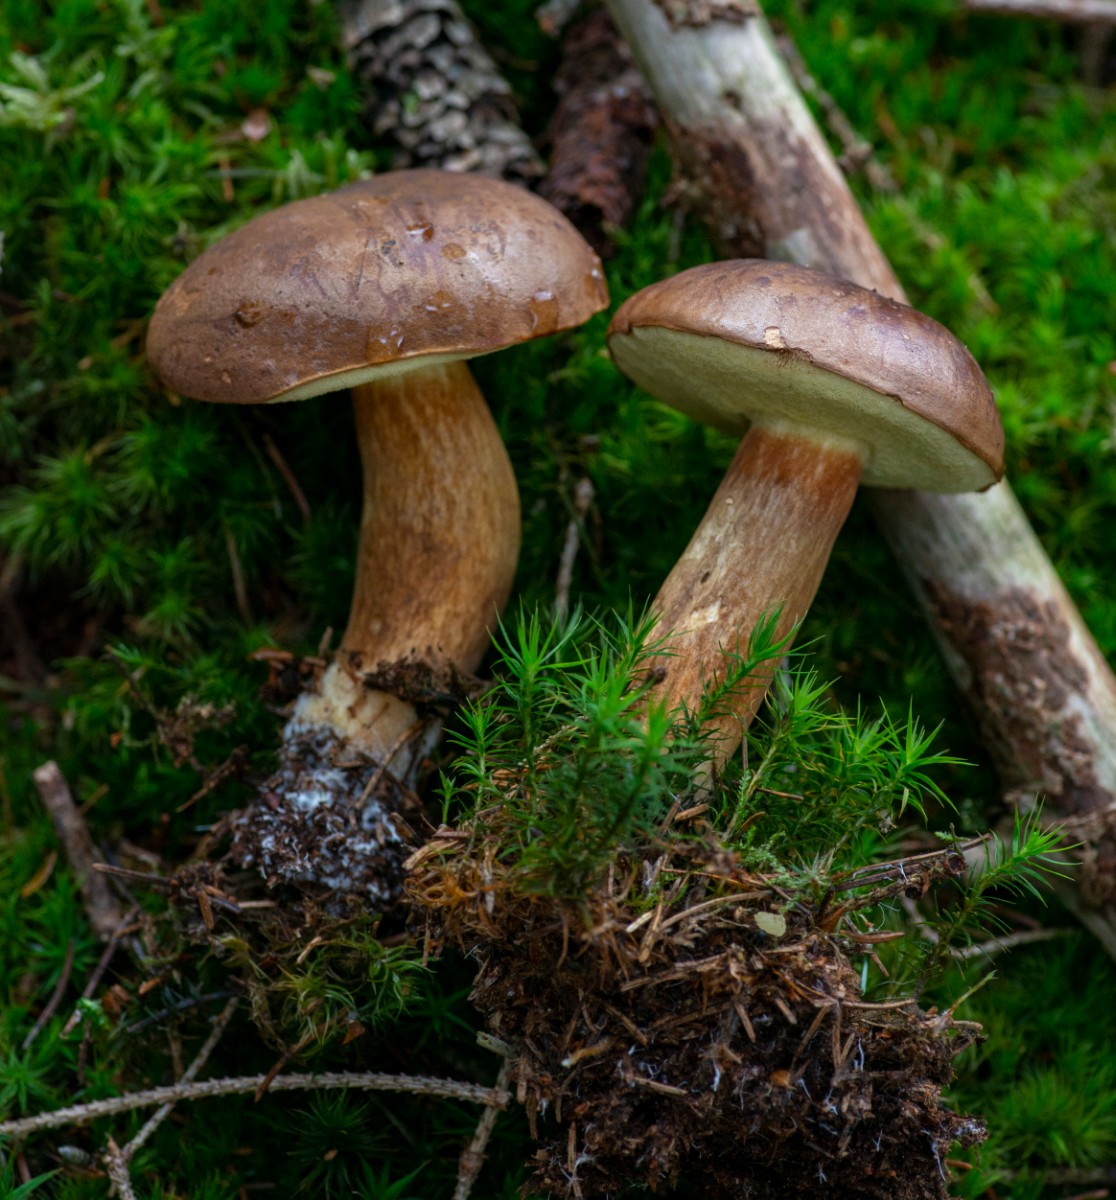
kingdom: Fungi
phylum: Basidiomycota
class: Agaricomycetes
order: Boletales
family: Boletaceae
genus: Imleria
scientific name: Imleria badia
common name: brunstokket rørhat
